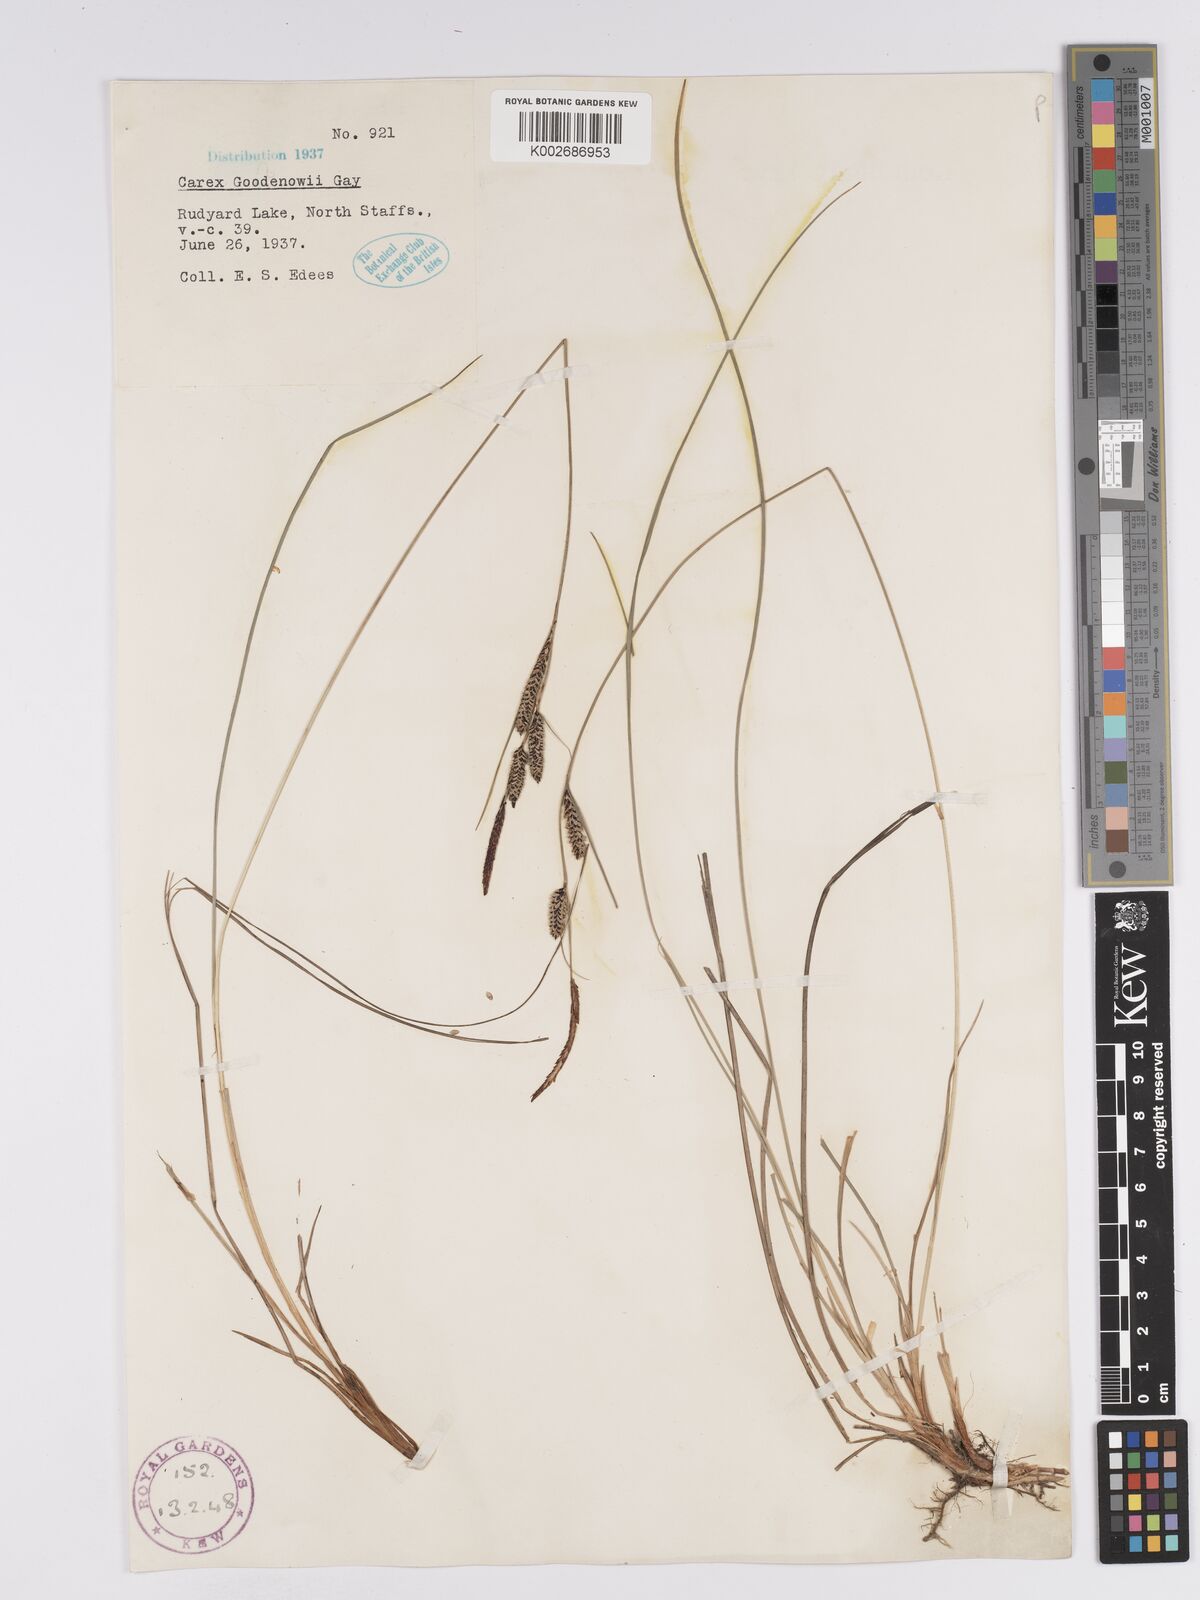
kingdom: Plantae
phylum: Tracheophyta
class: Liliopsida
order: Poales
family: Cyperaceae
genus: Carex
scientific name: Carex nigra
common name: Common sedge
